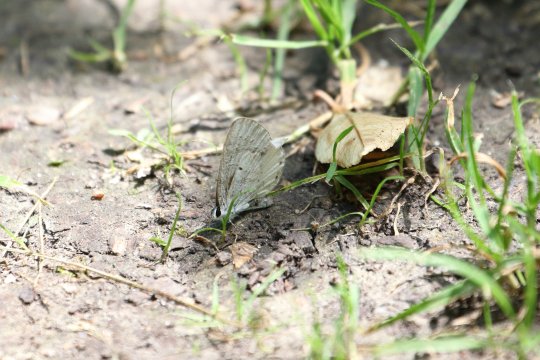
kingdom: Animalia
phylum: Arthropoda
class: Insecta
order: Lepidoptera
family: Lycaenidae
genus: Cyaniris
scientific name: Cyaniris neglecta
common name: Summer Azure
